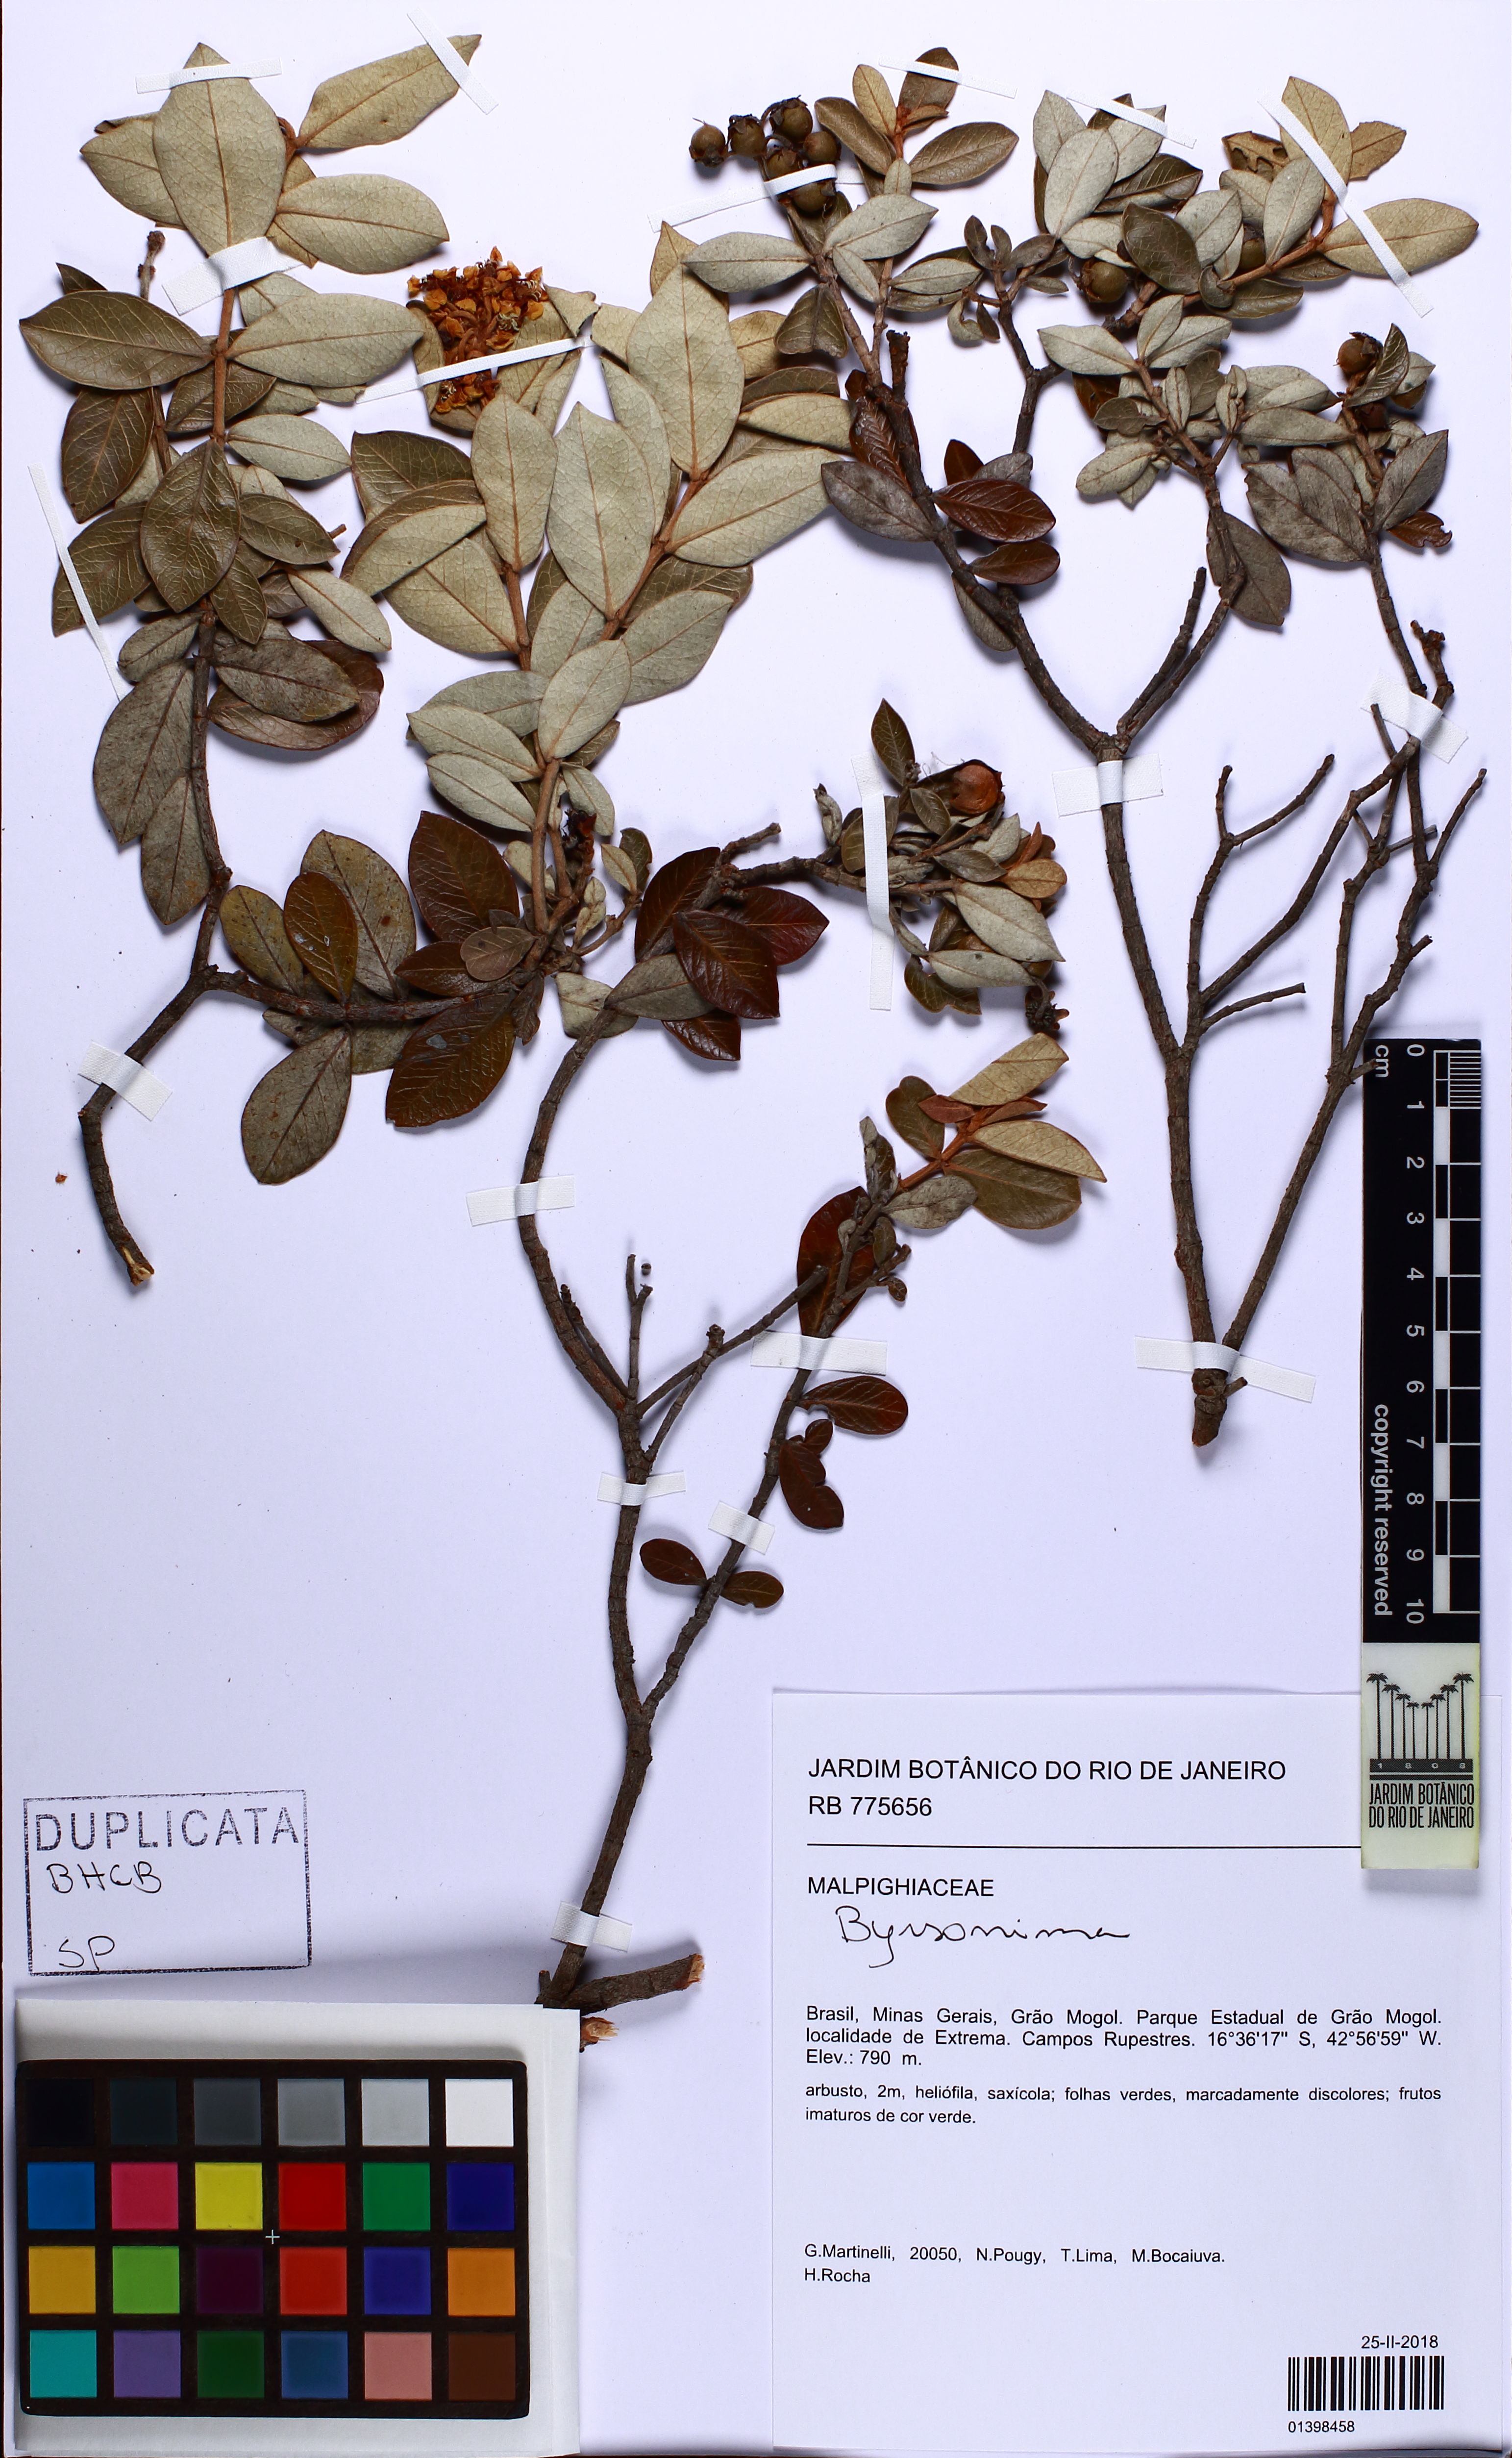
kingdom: Plantae
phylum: Tracheophyta
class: Magnoliopsida
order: Malpighiales
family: Malpighiaceae
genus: Byrsonima
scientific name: Byrsonima
